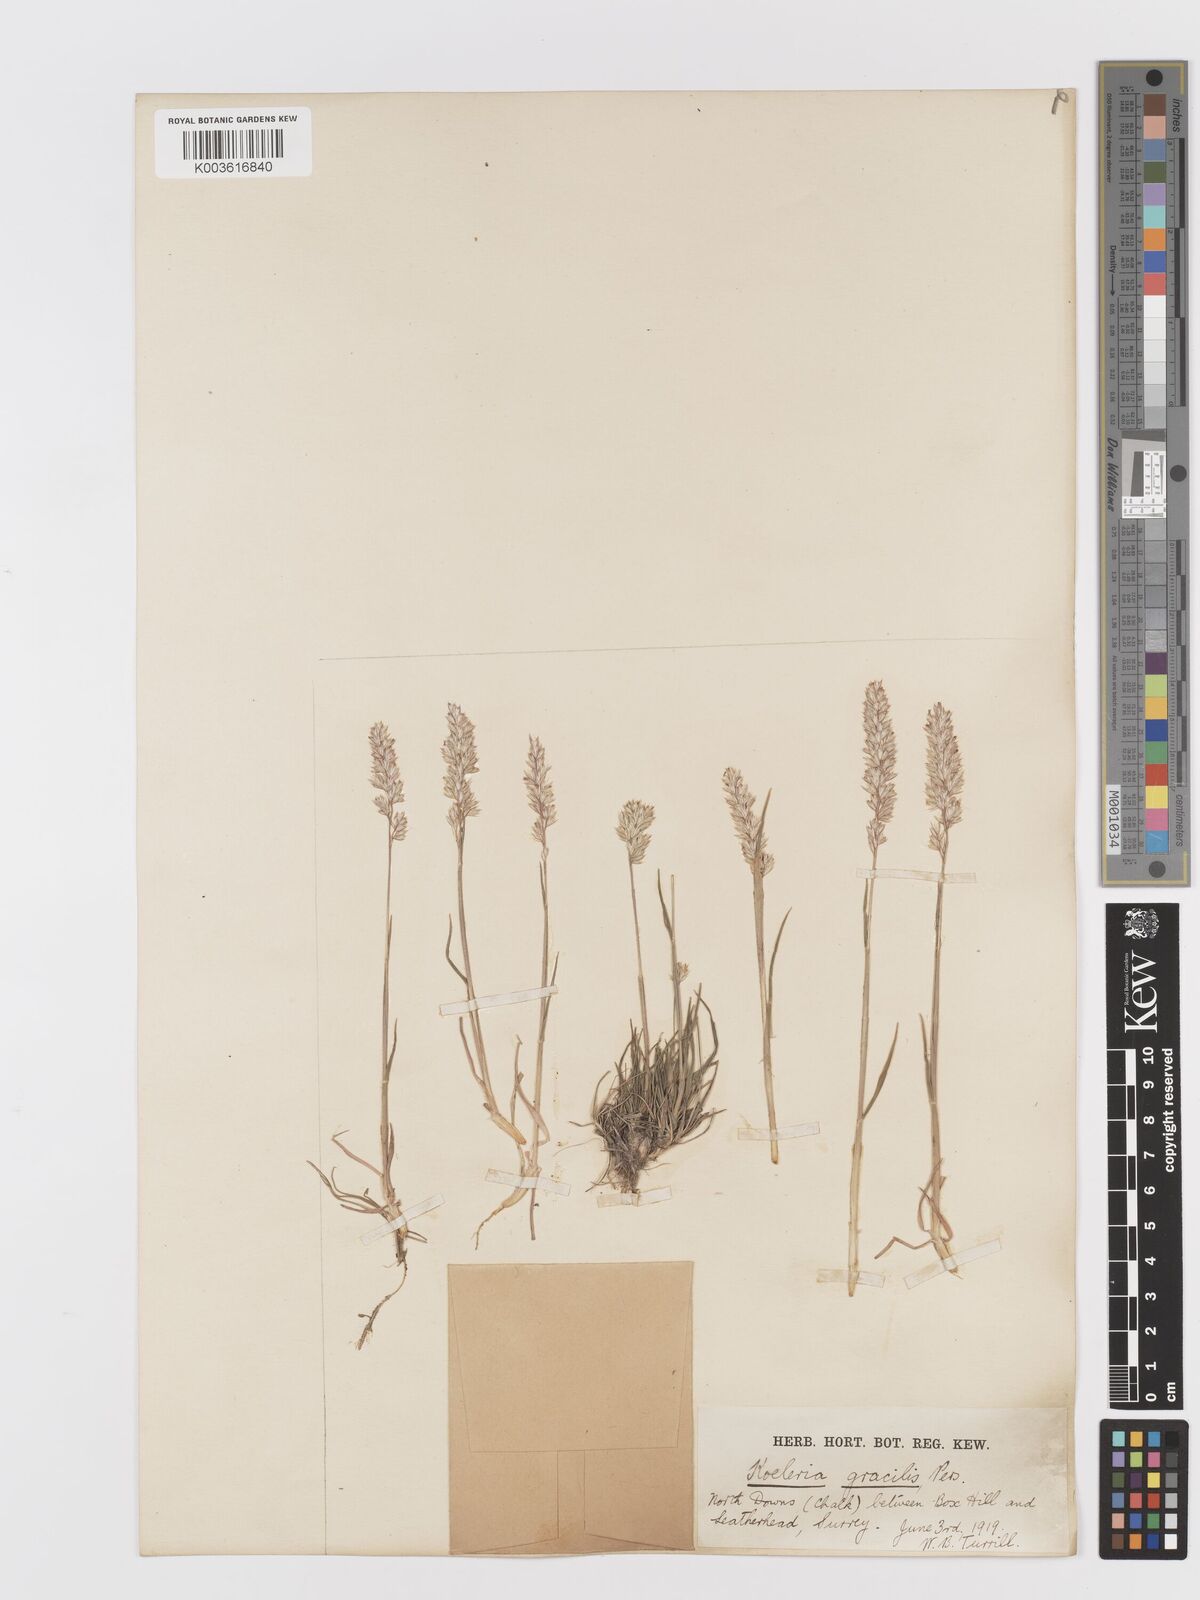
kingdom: Plantae
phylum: Tracheophyta
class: Liliopsida
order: Poales
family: Poaceae
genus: Koeleria
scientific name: Koeleria
